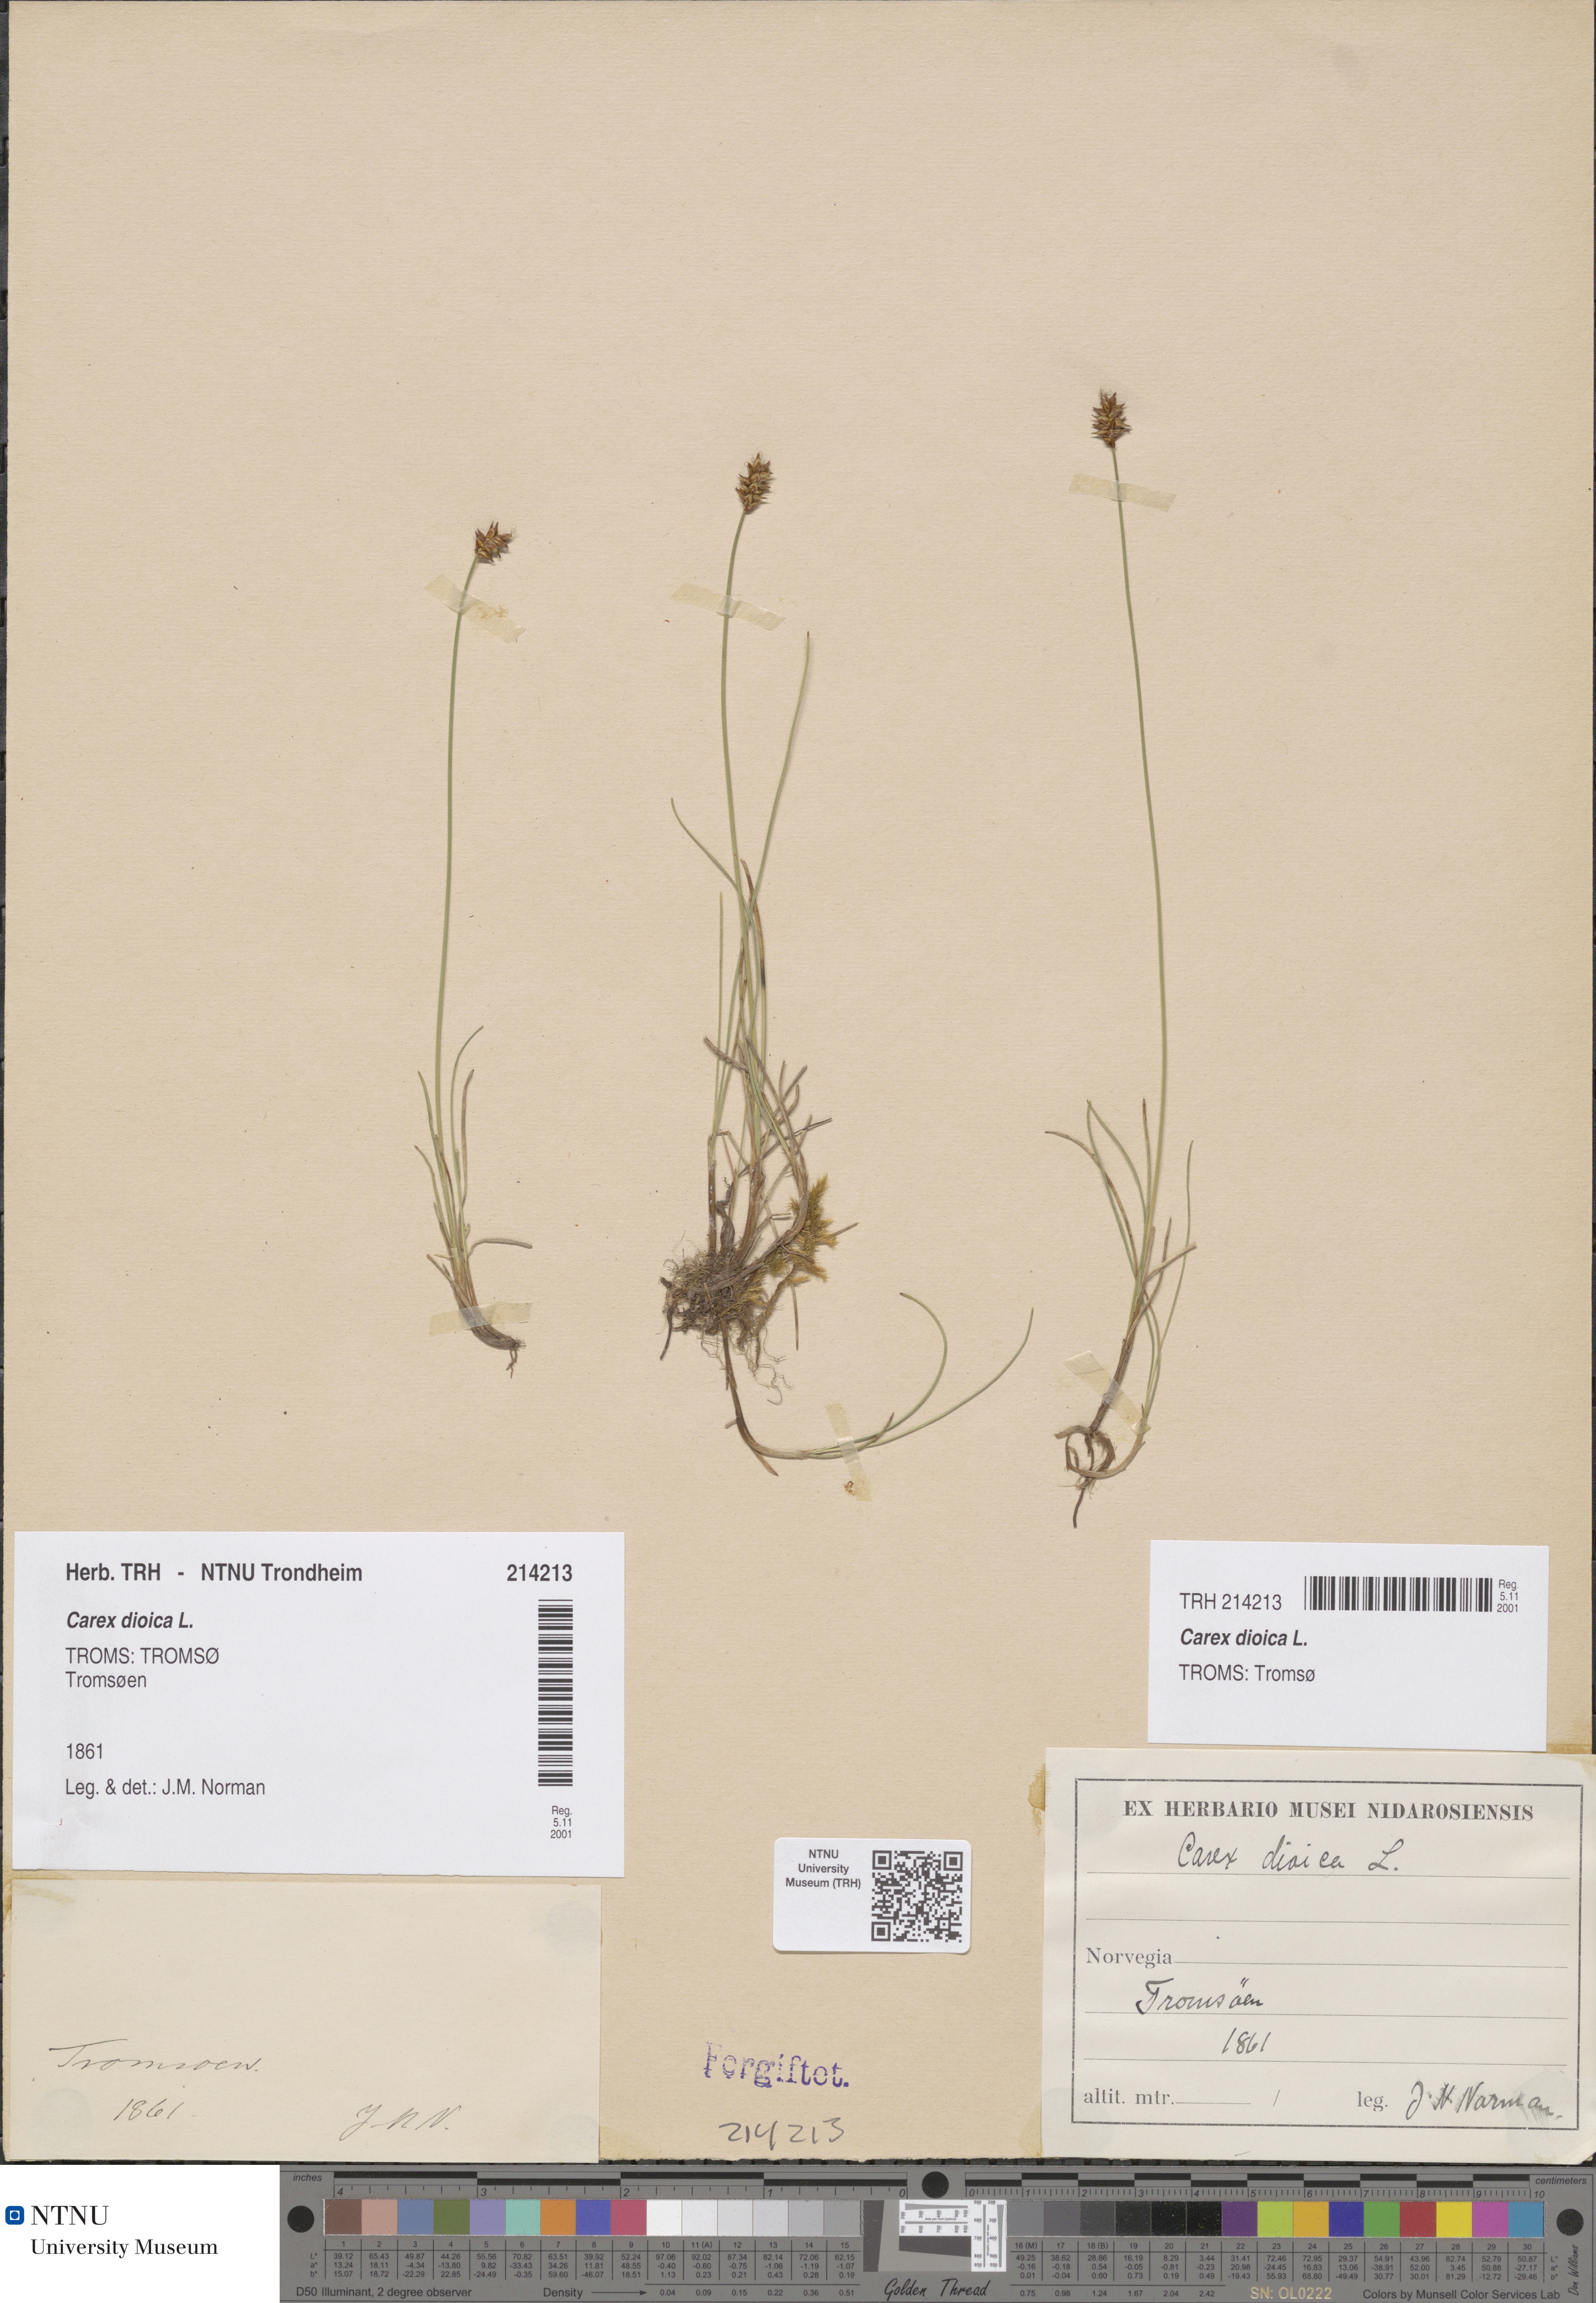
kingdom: Plantae
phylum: Tracheophyta
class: Liliopsida
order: Poales
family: Cyperaceae
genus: Carex
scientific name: Carex dioica
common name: Dioecious sedge
